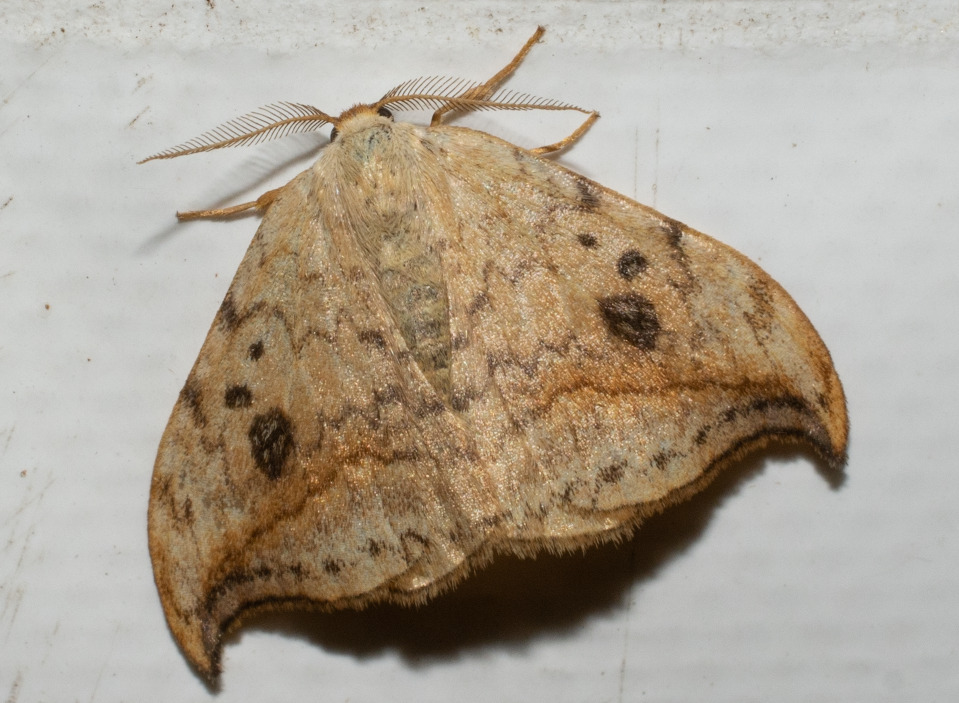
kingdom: Animalia
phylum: Arthropoda
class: Insecta
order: Lepidoptera
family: Drepanidae
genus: Drepana
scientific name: Drepana falcataria
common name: Birkeseglvinge
